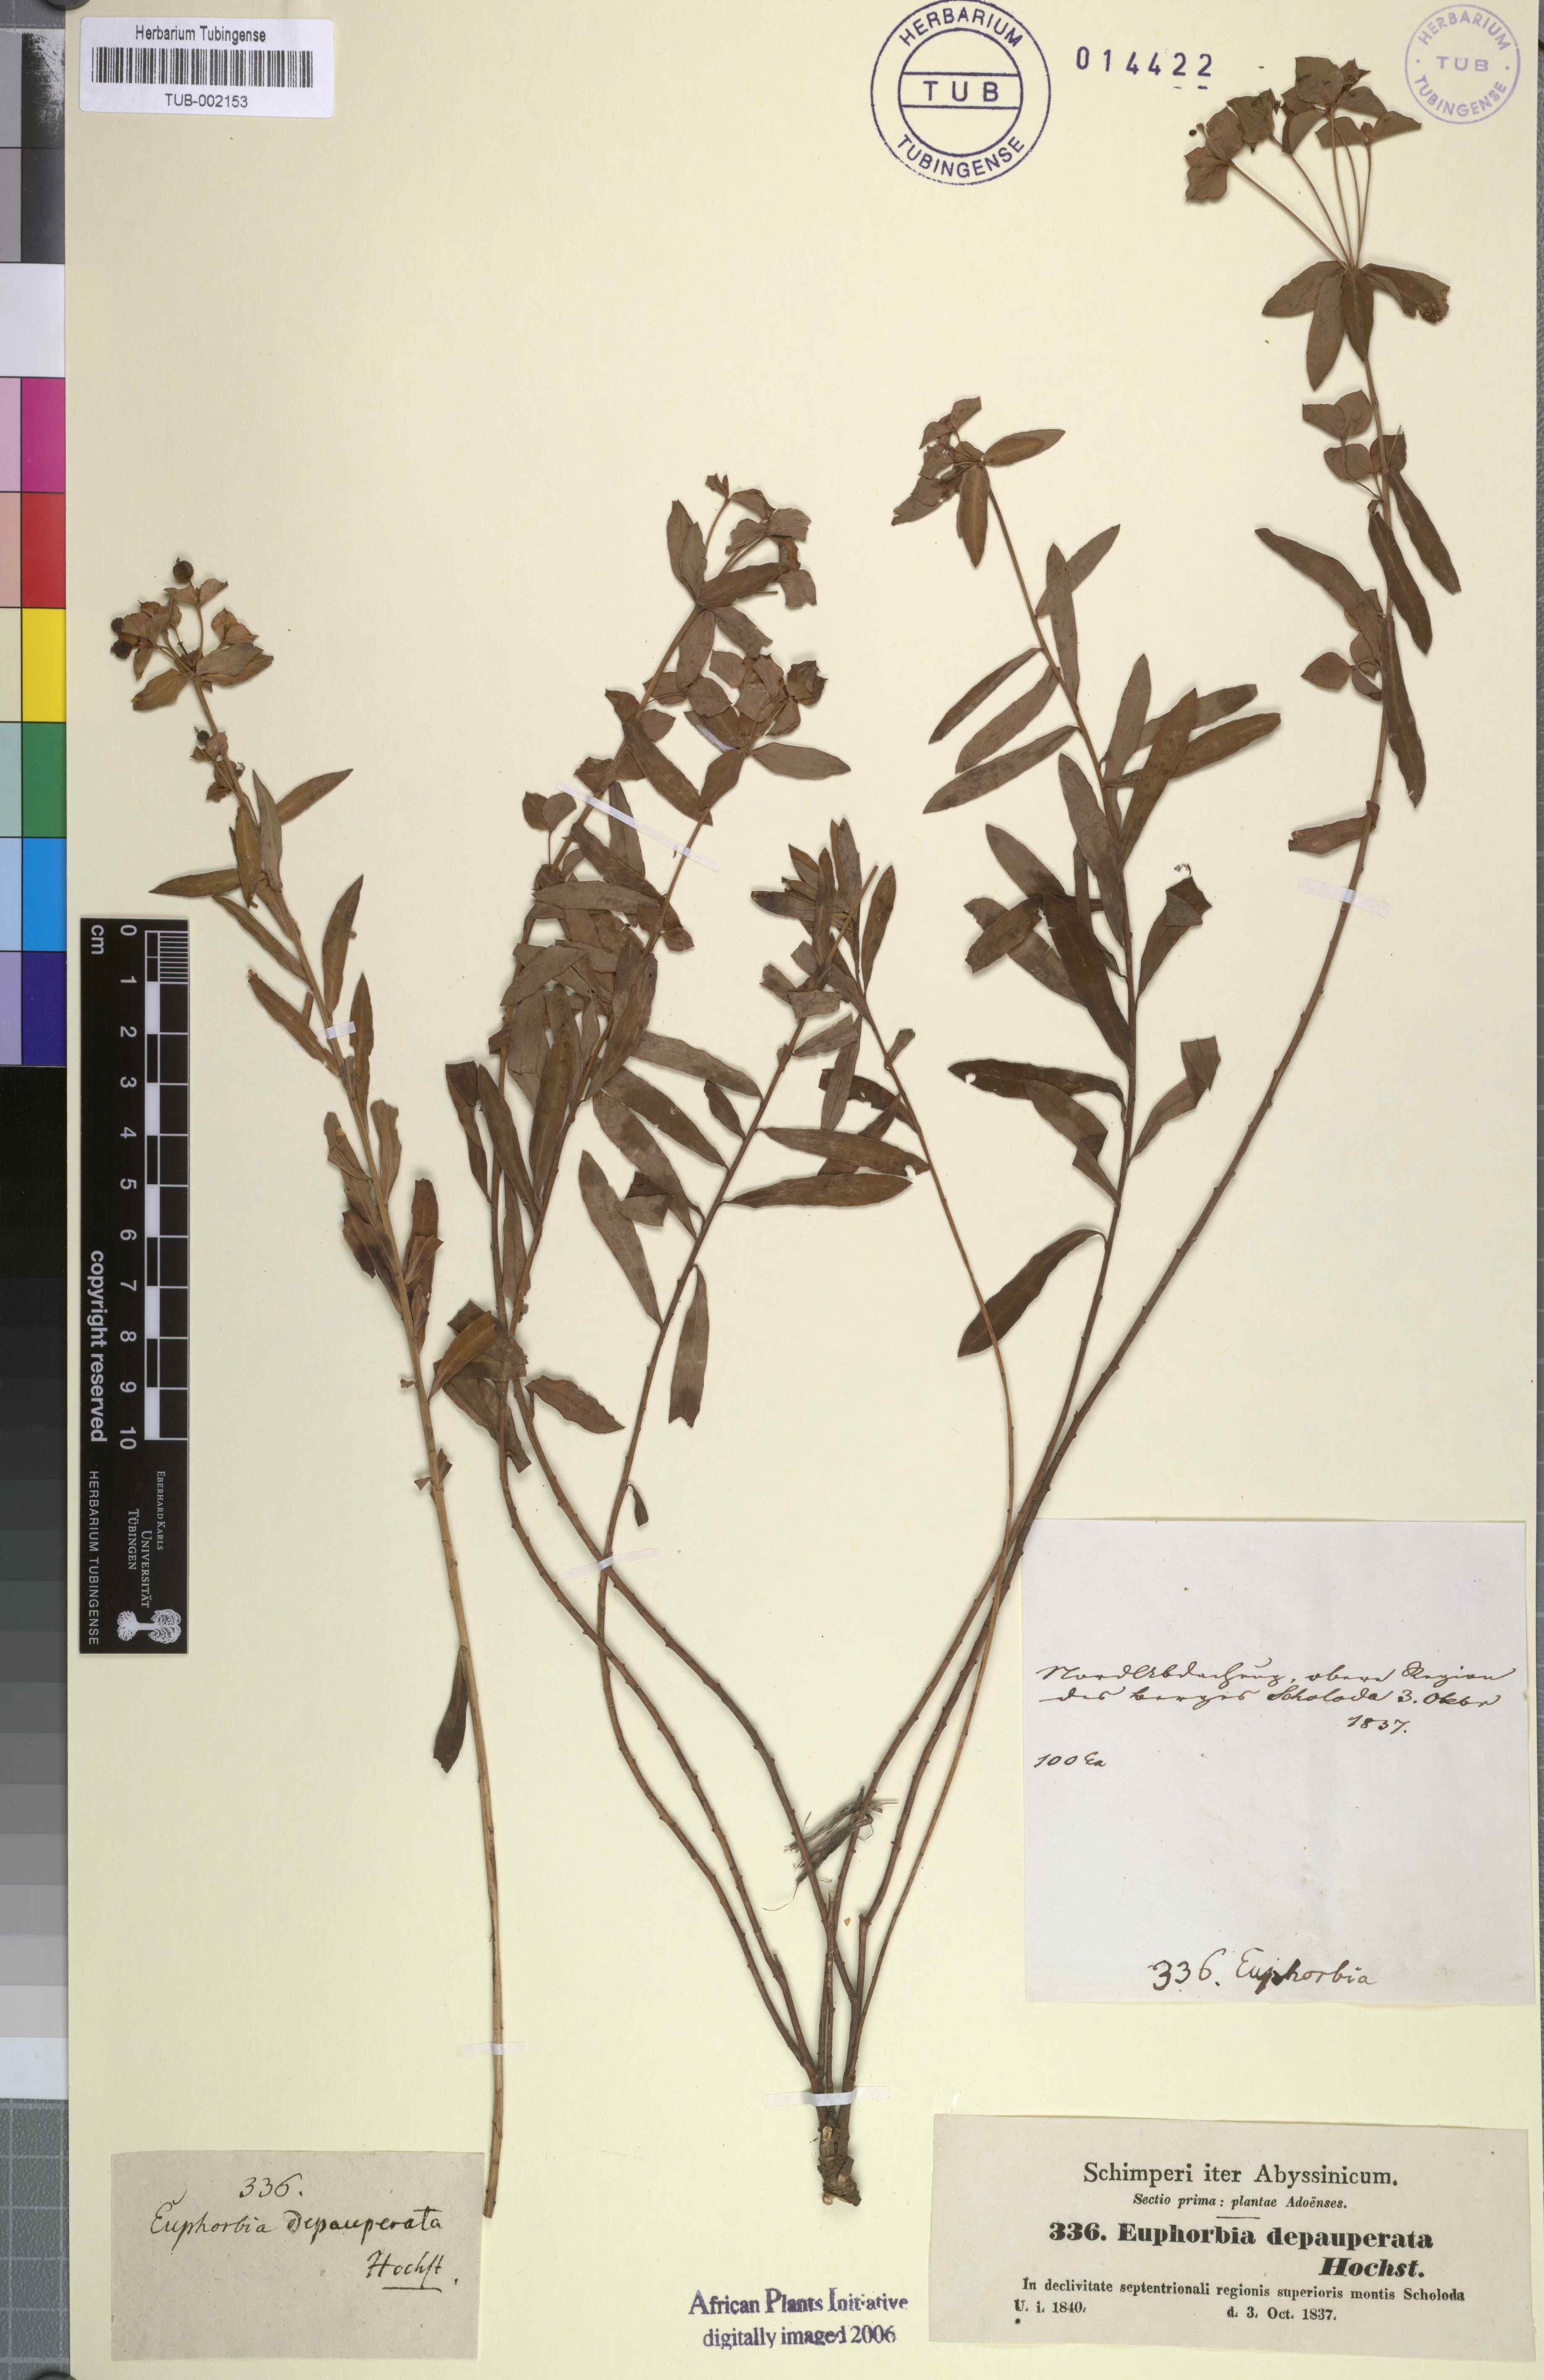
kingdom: Plantae
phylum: Tracheophyta
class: Magnoliopsida
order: Malpighiales
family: Euphorbiaceae
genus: Euphorbia
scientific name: Euphorbia depauperata
